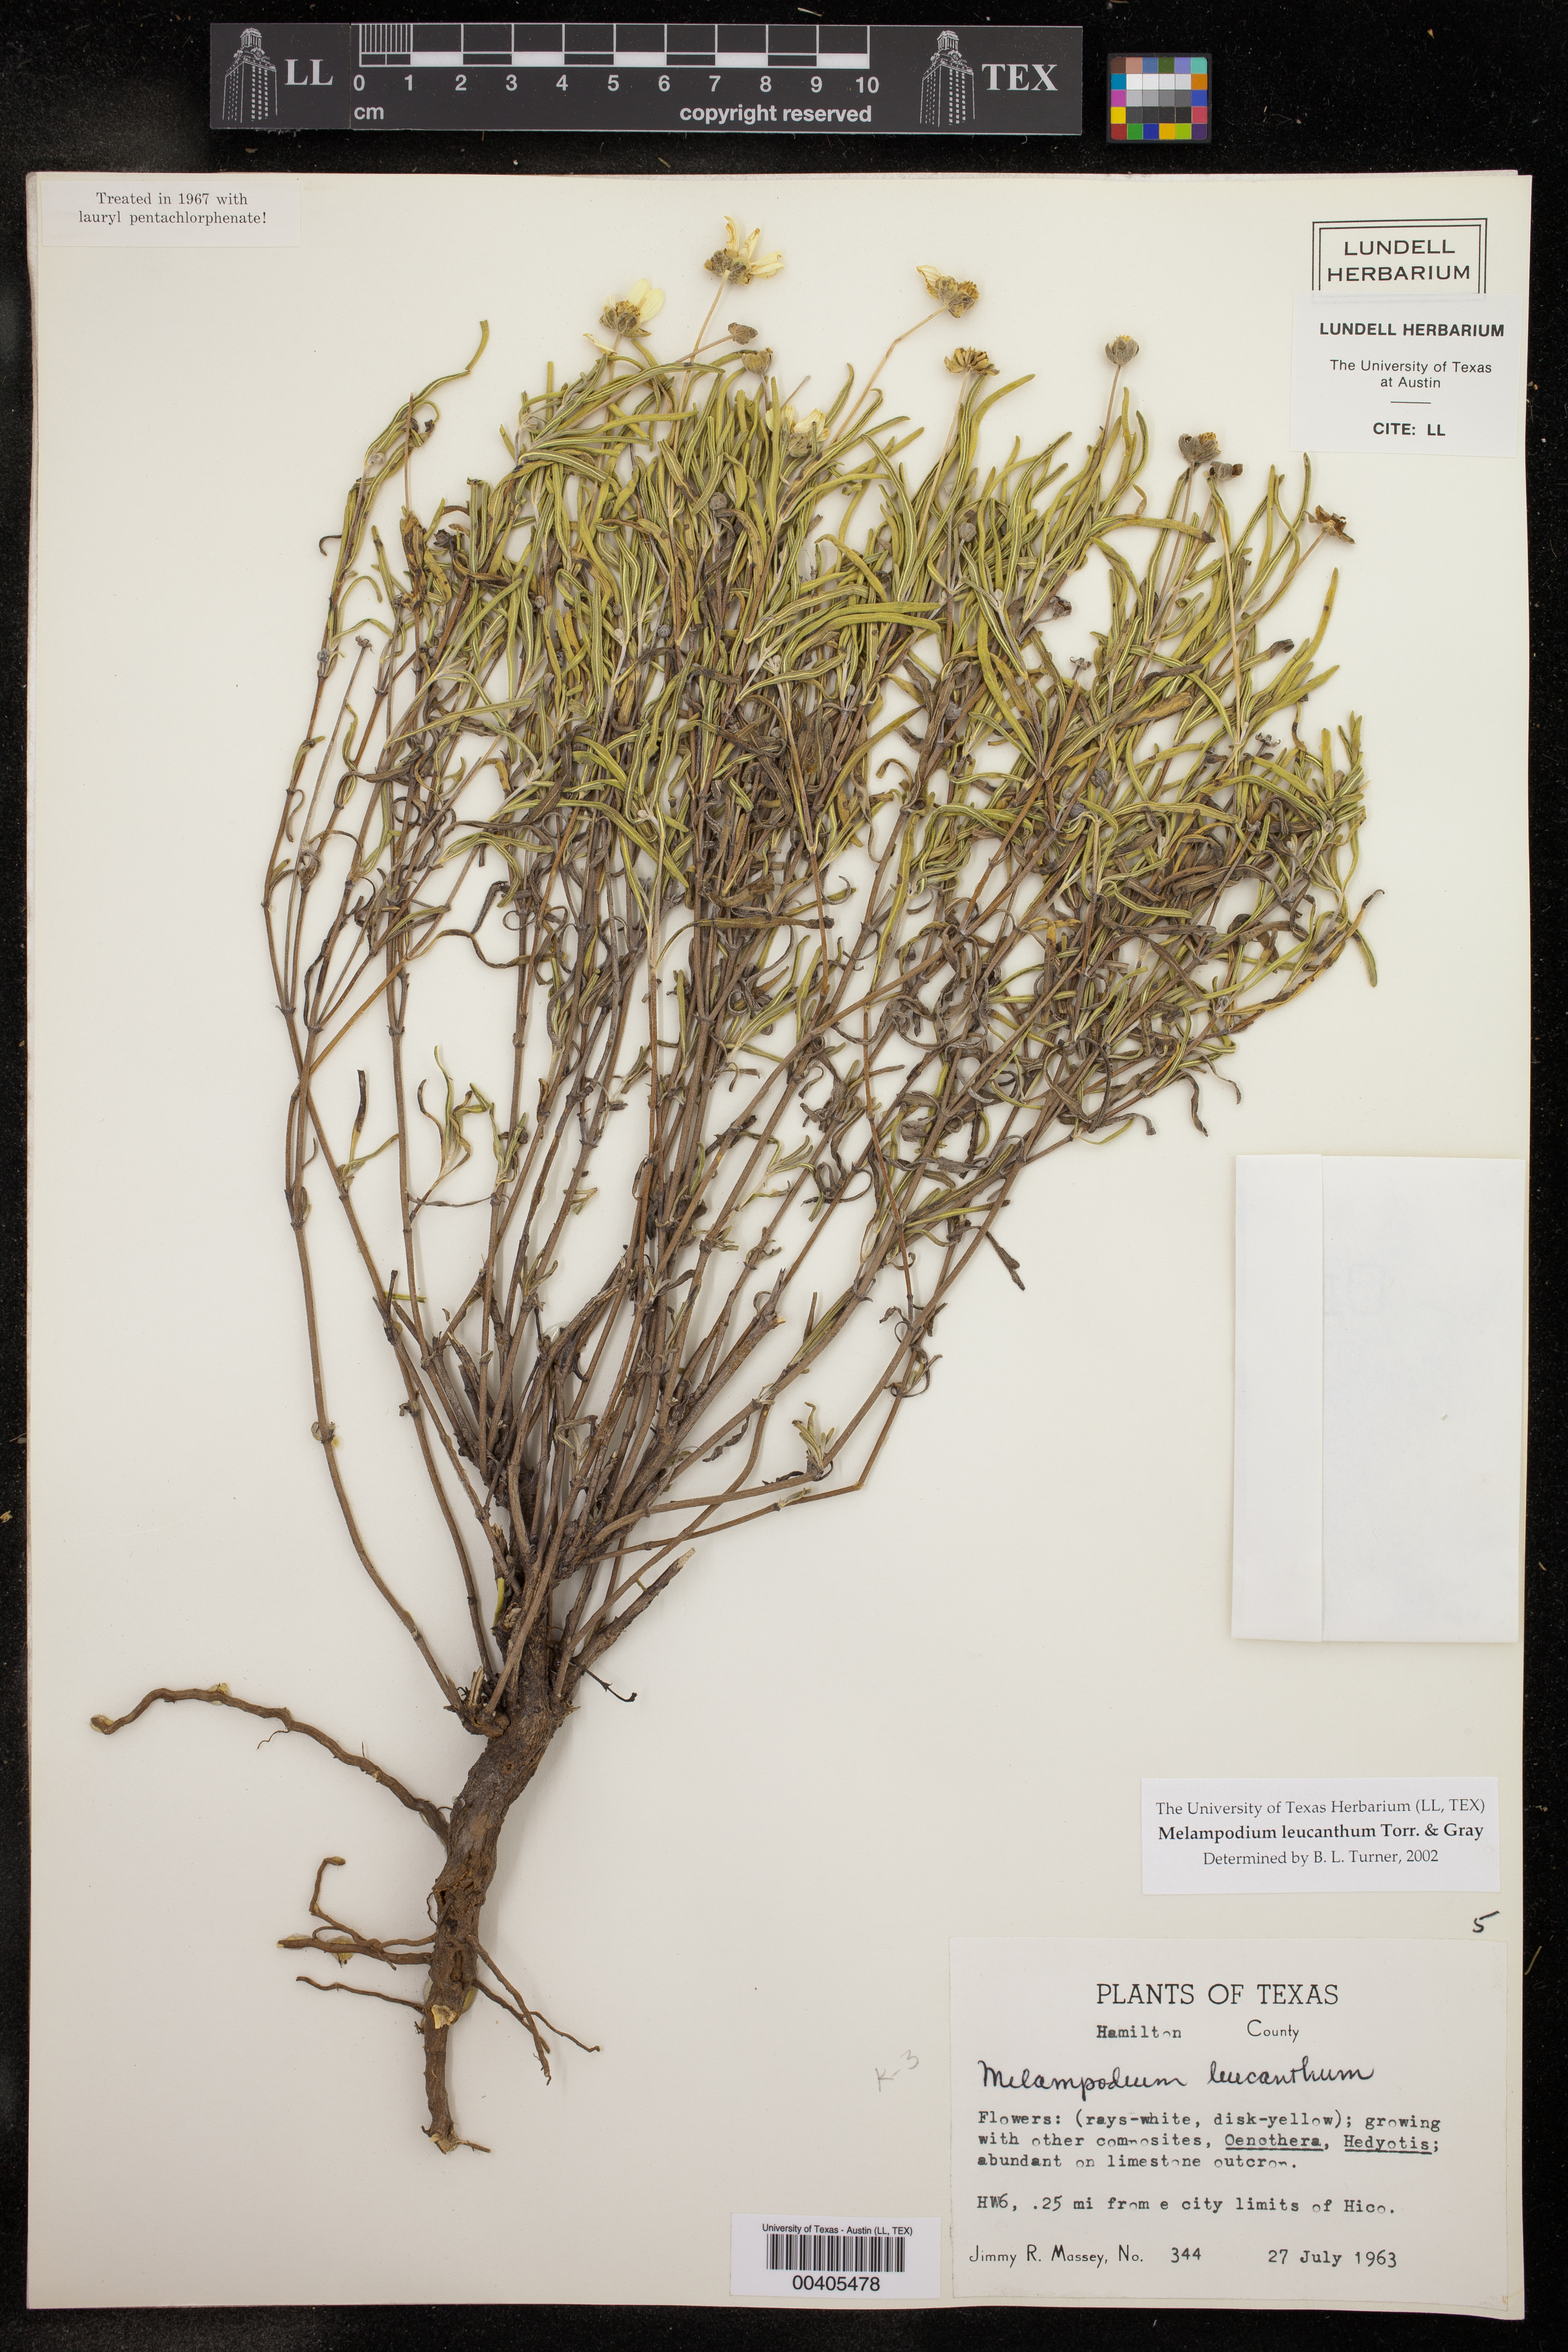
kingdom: Plantae
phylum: Tracheophyta
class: Magnoliopsida
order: Asterales
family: Asteraceae
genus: Melampodium
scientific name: Melampodium leucanthum
